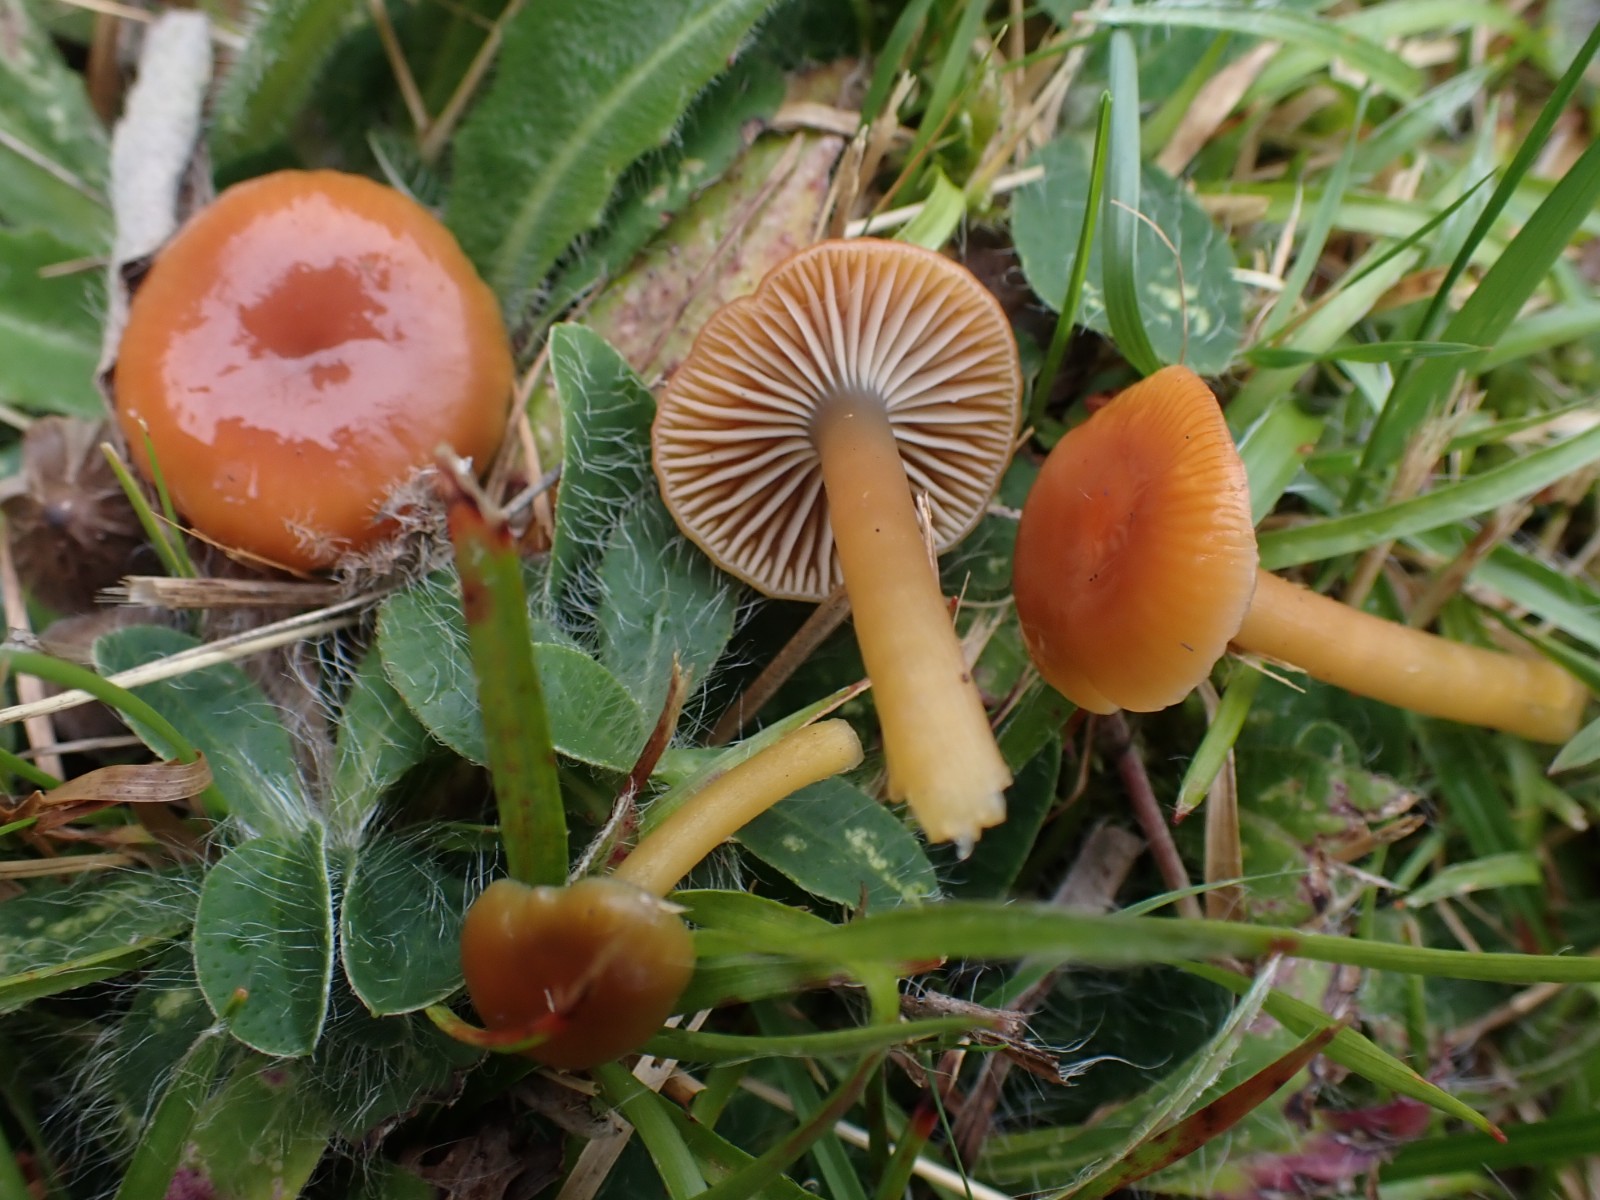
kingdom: Fungi
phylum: Basidiomycota
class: Agaricomycetes
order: Agaricales
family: Hygrophoraceae
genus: Gliophorus
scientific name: Gliophorus laetus
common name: brusk-vokshat
